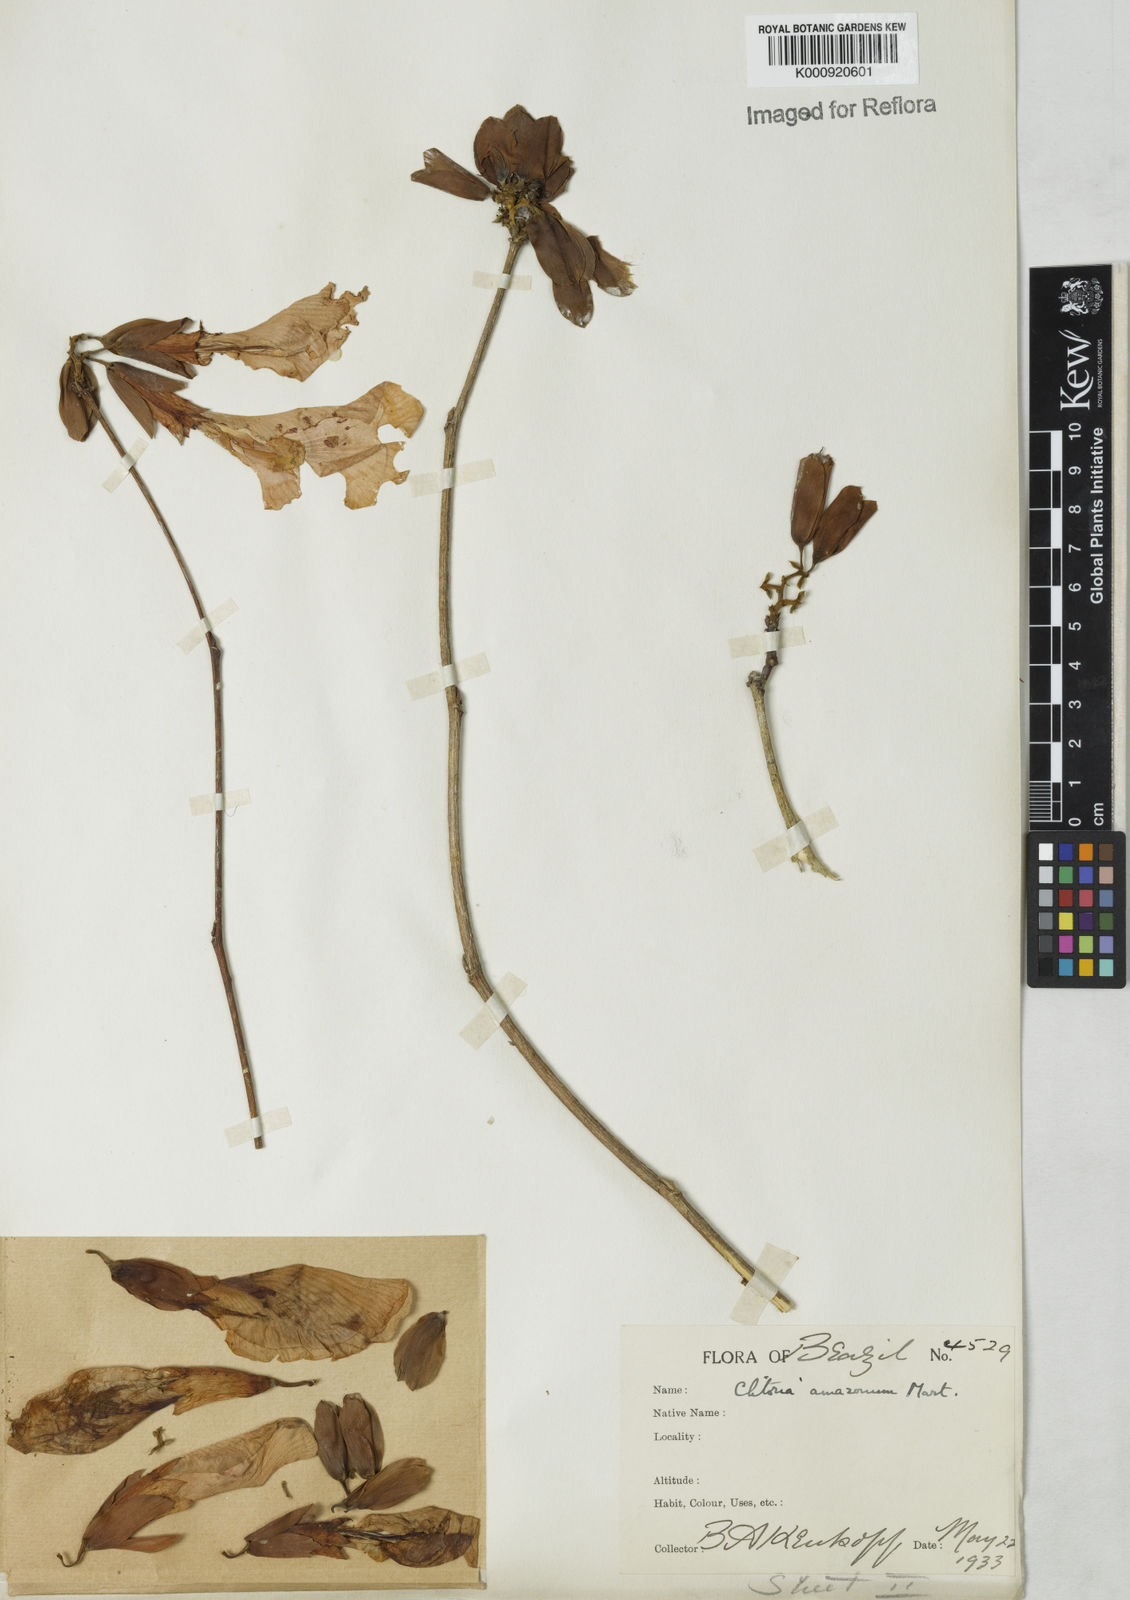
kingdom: Plantae
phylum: Tracheophyta
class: Magnoliopsida
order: Fabales
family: Fabaceae
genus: Clitoria
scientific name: Clitoria amazonum
